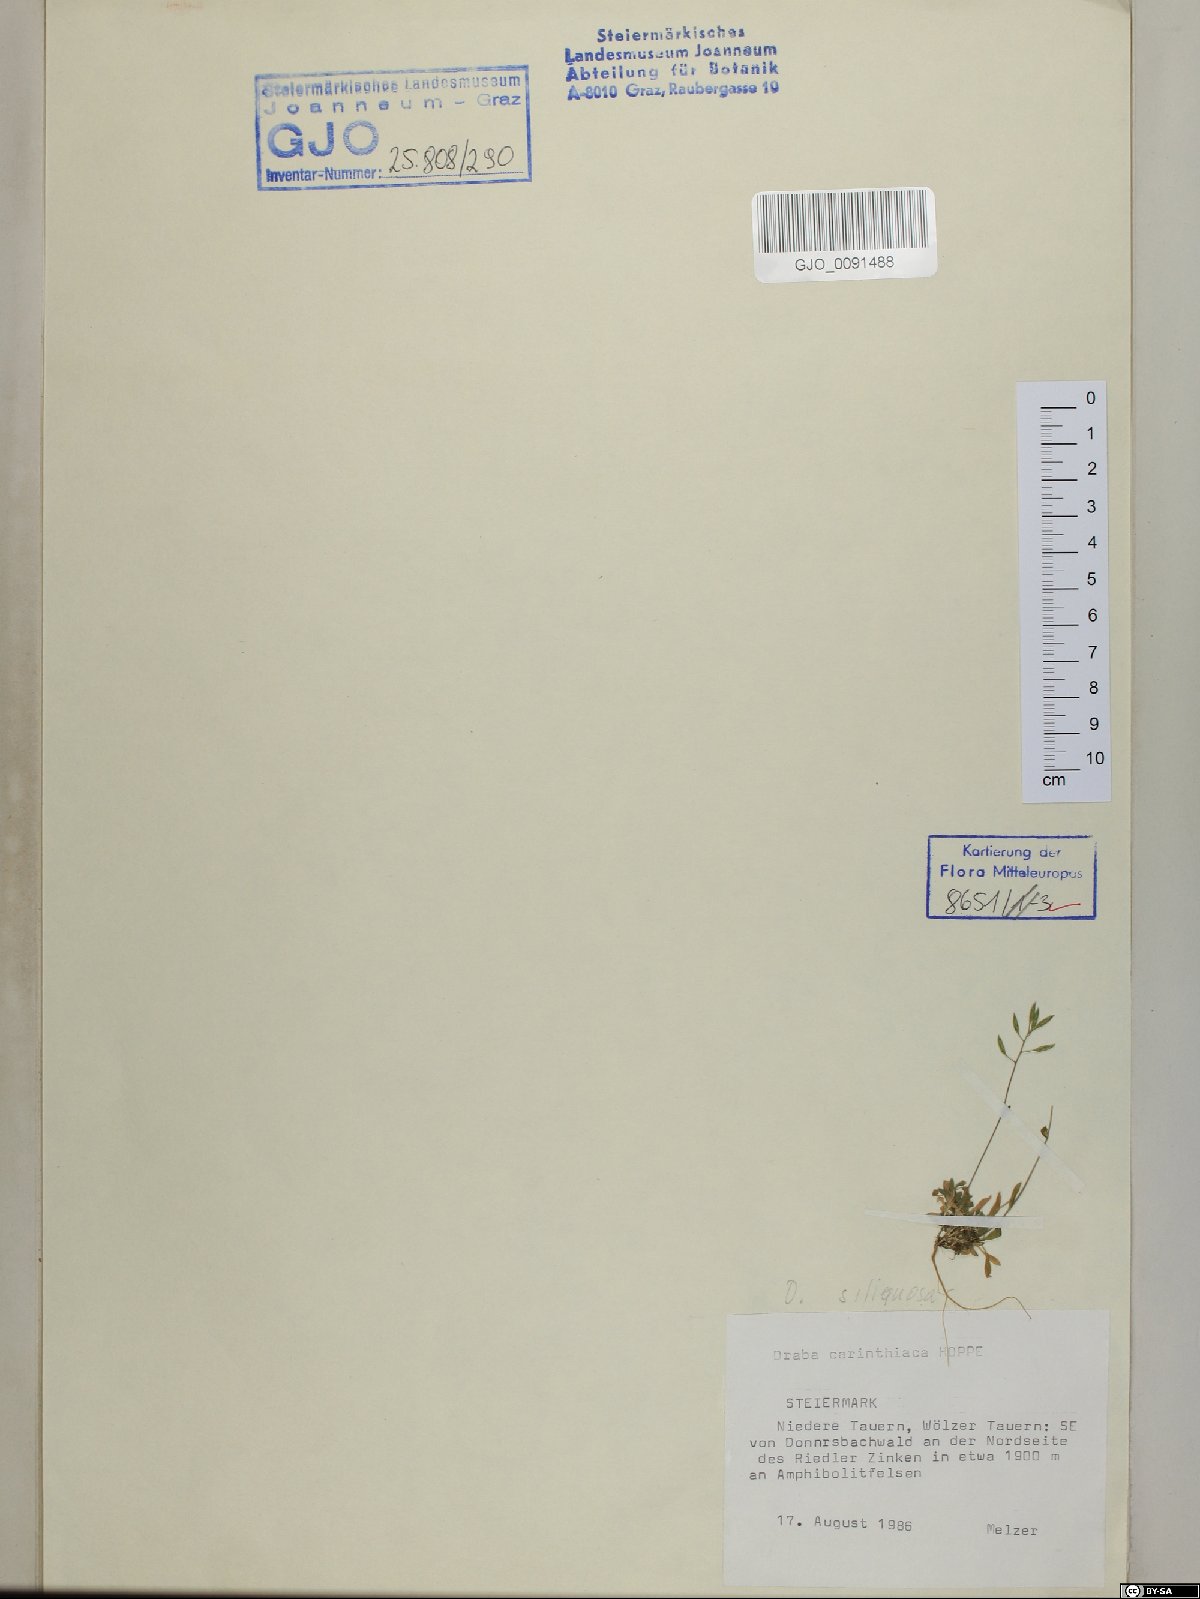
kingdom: Plantae
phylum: Tracheophyta
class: Magnoliopsida
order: Brassicales
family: Brassicaceae
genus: Draba
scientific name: Draba siliquosa
